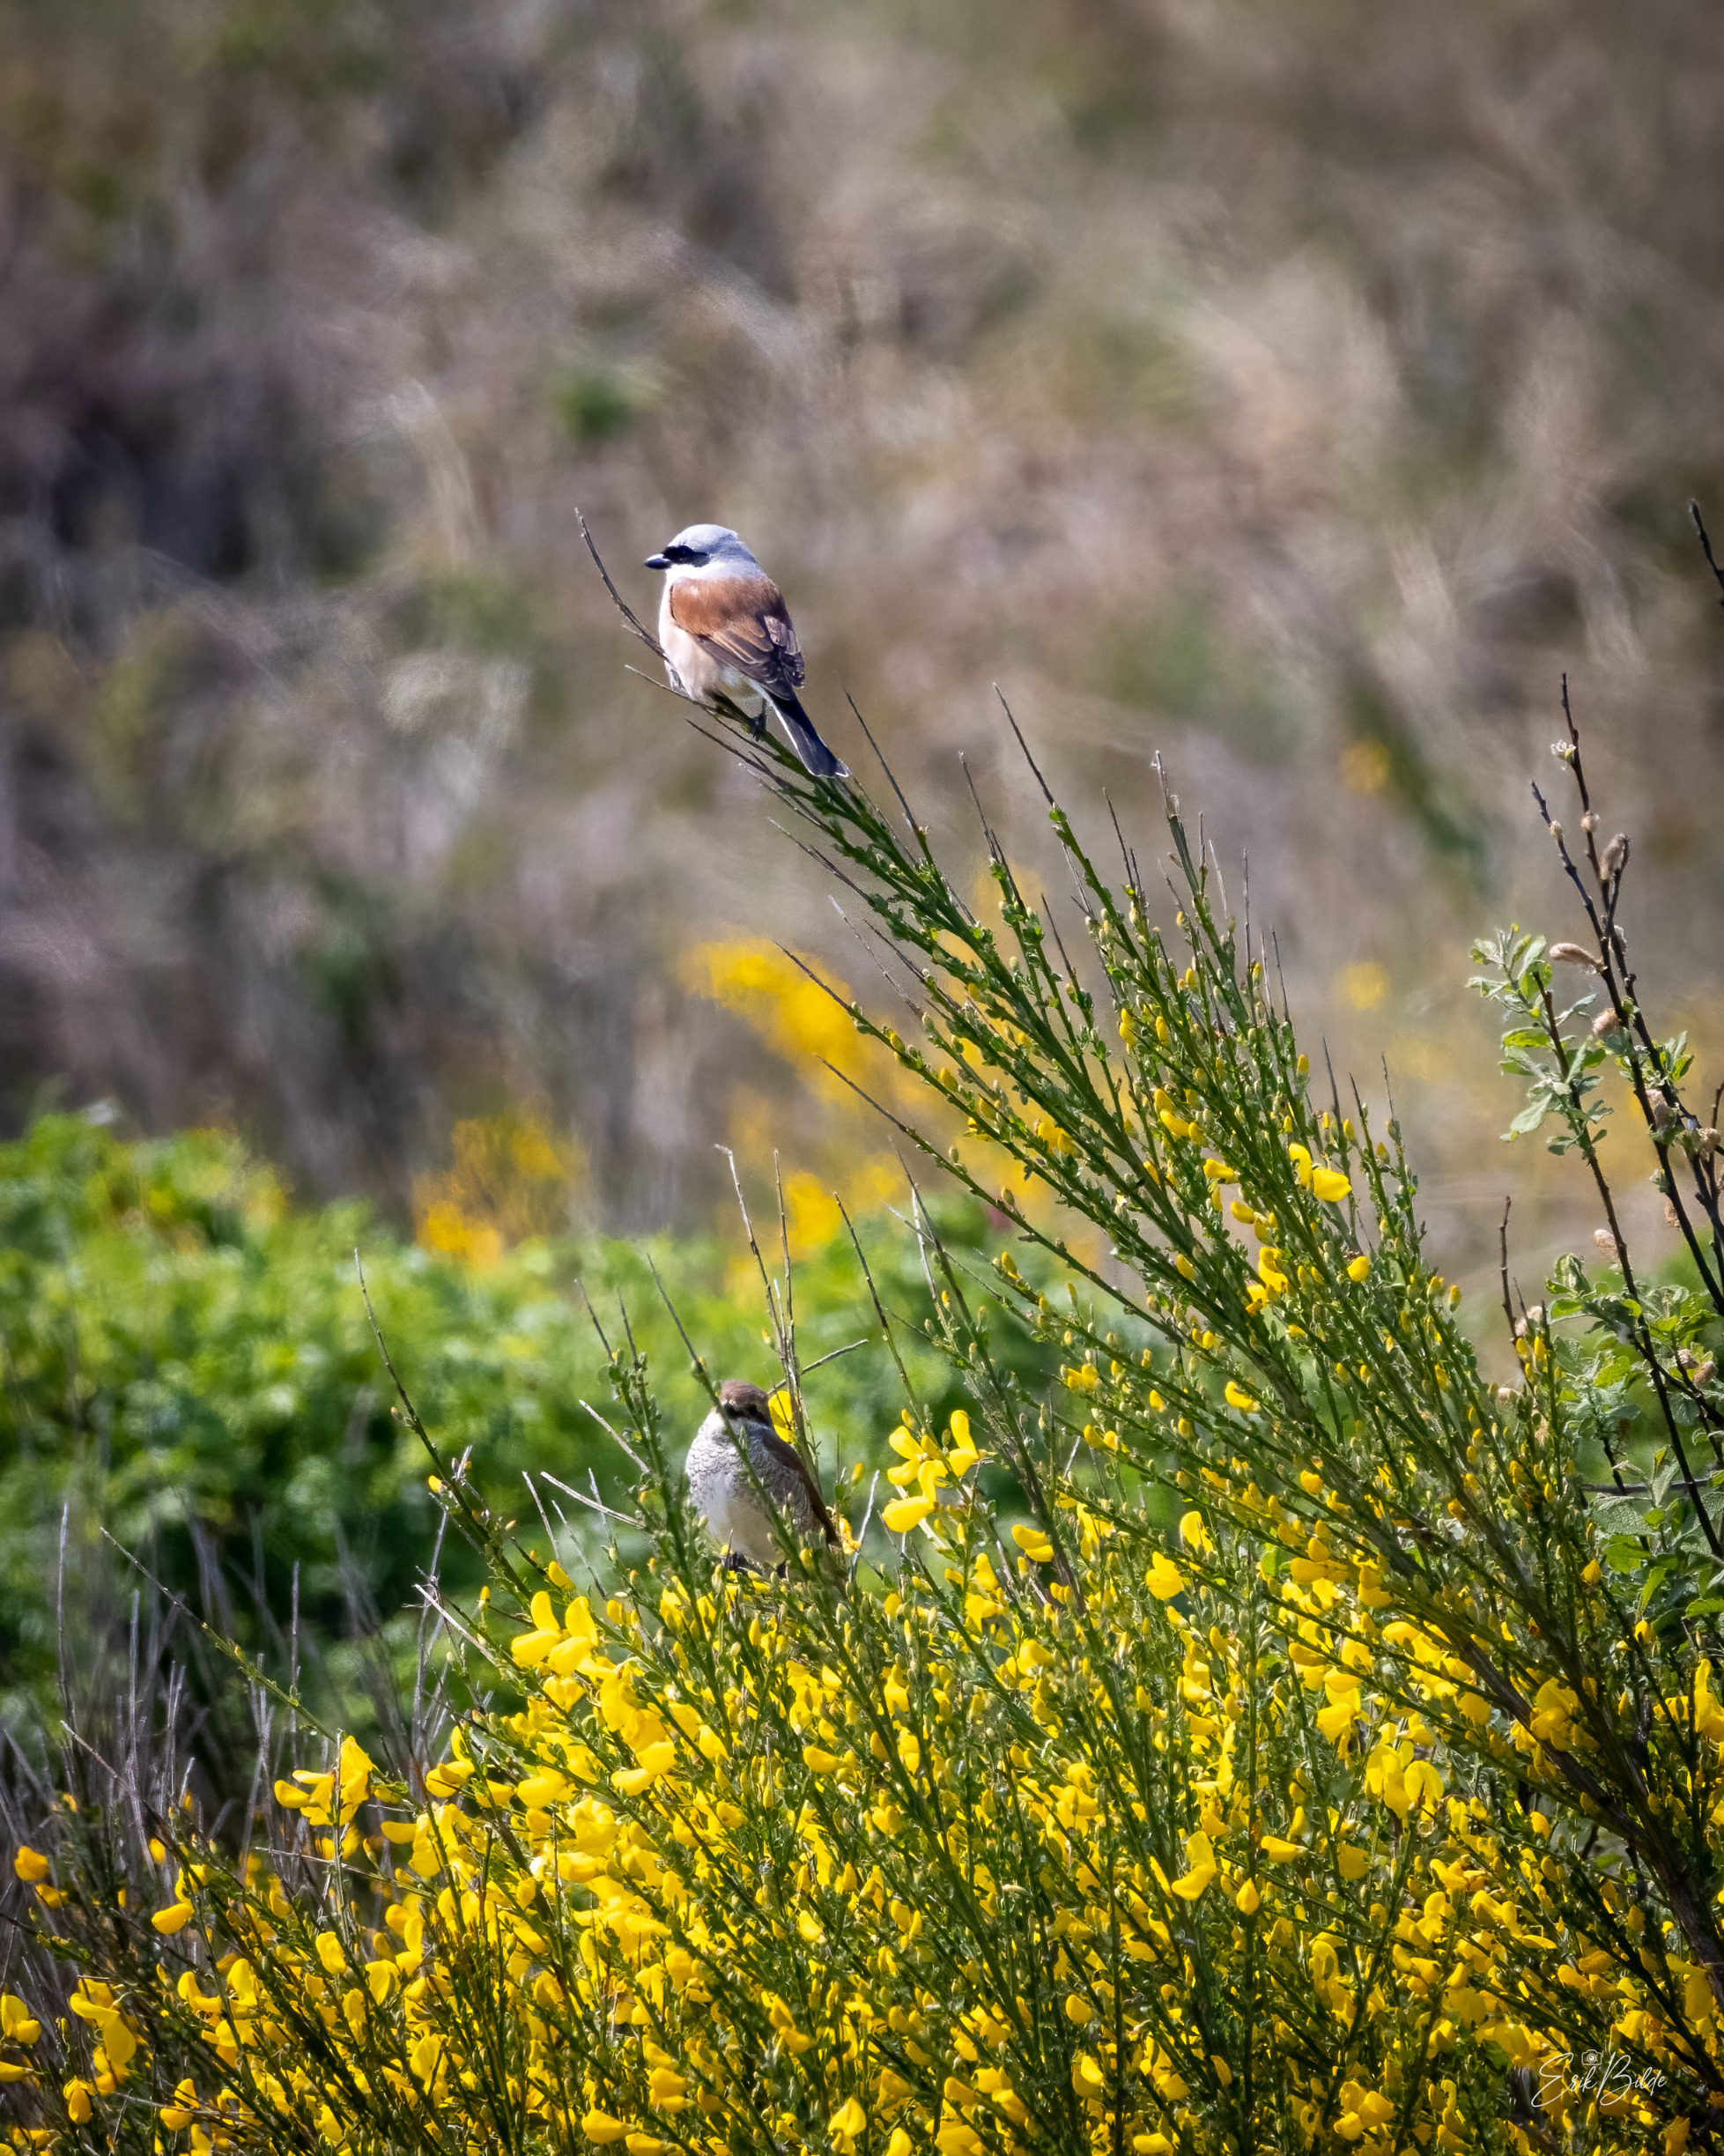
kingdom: Animalia
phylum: Chordata
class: Aves
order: Passeriformes
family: Laniidae
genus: Lanius
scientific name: Lanius collurio
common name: Rødrygget tornskade
